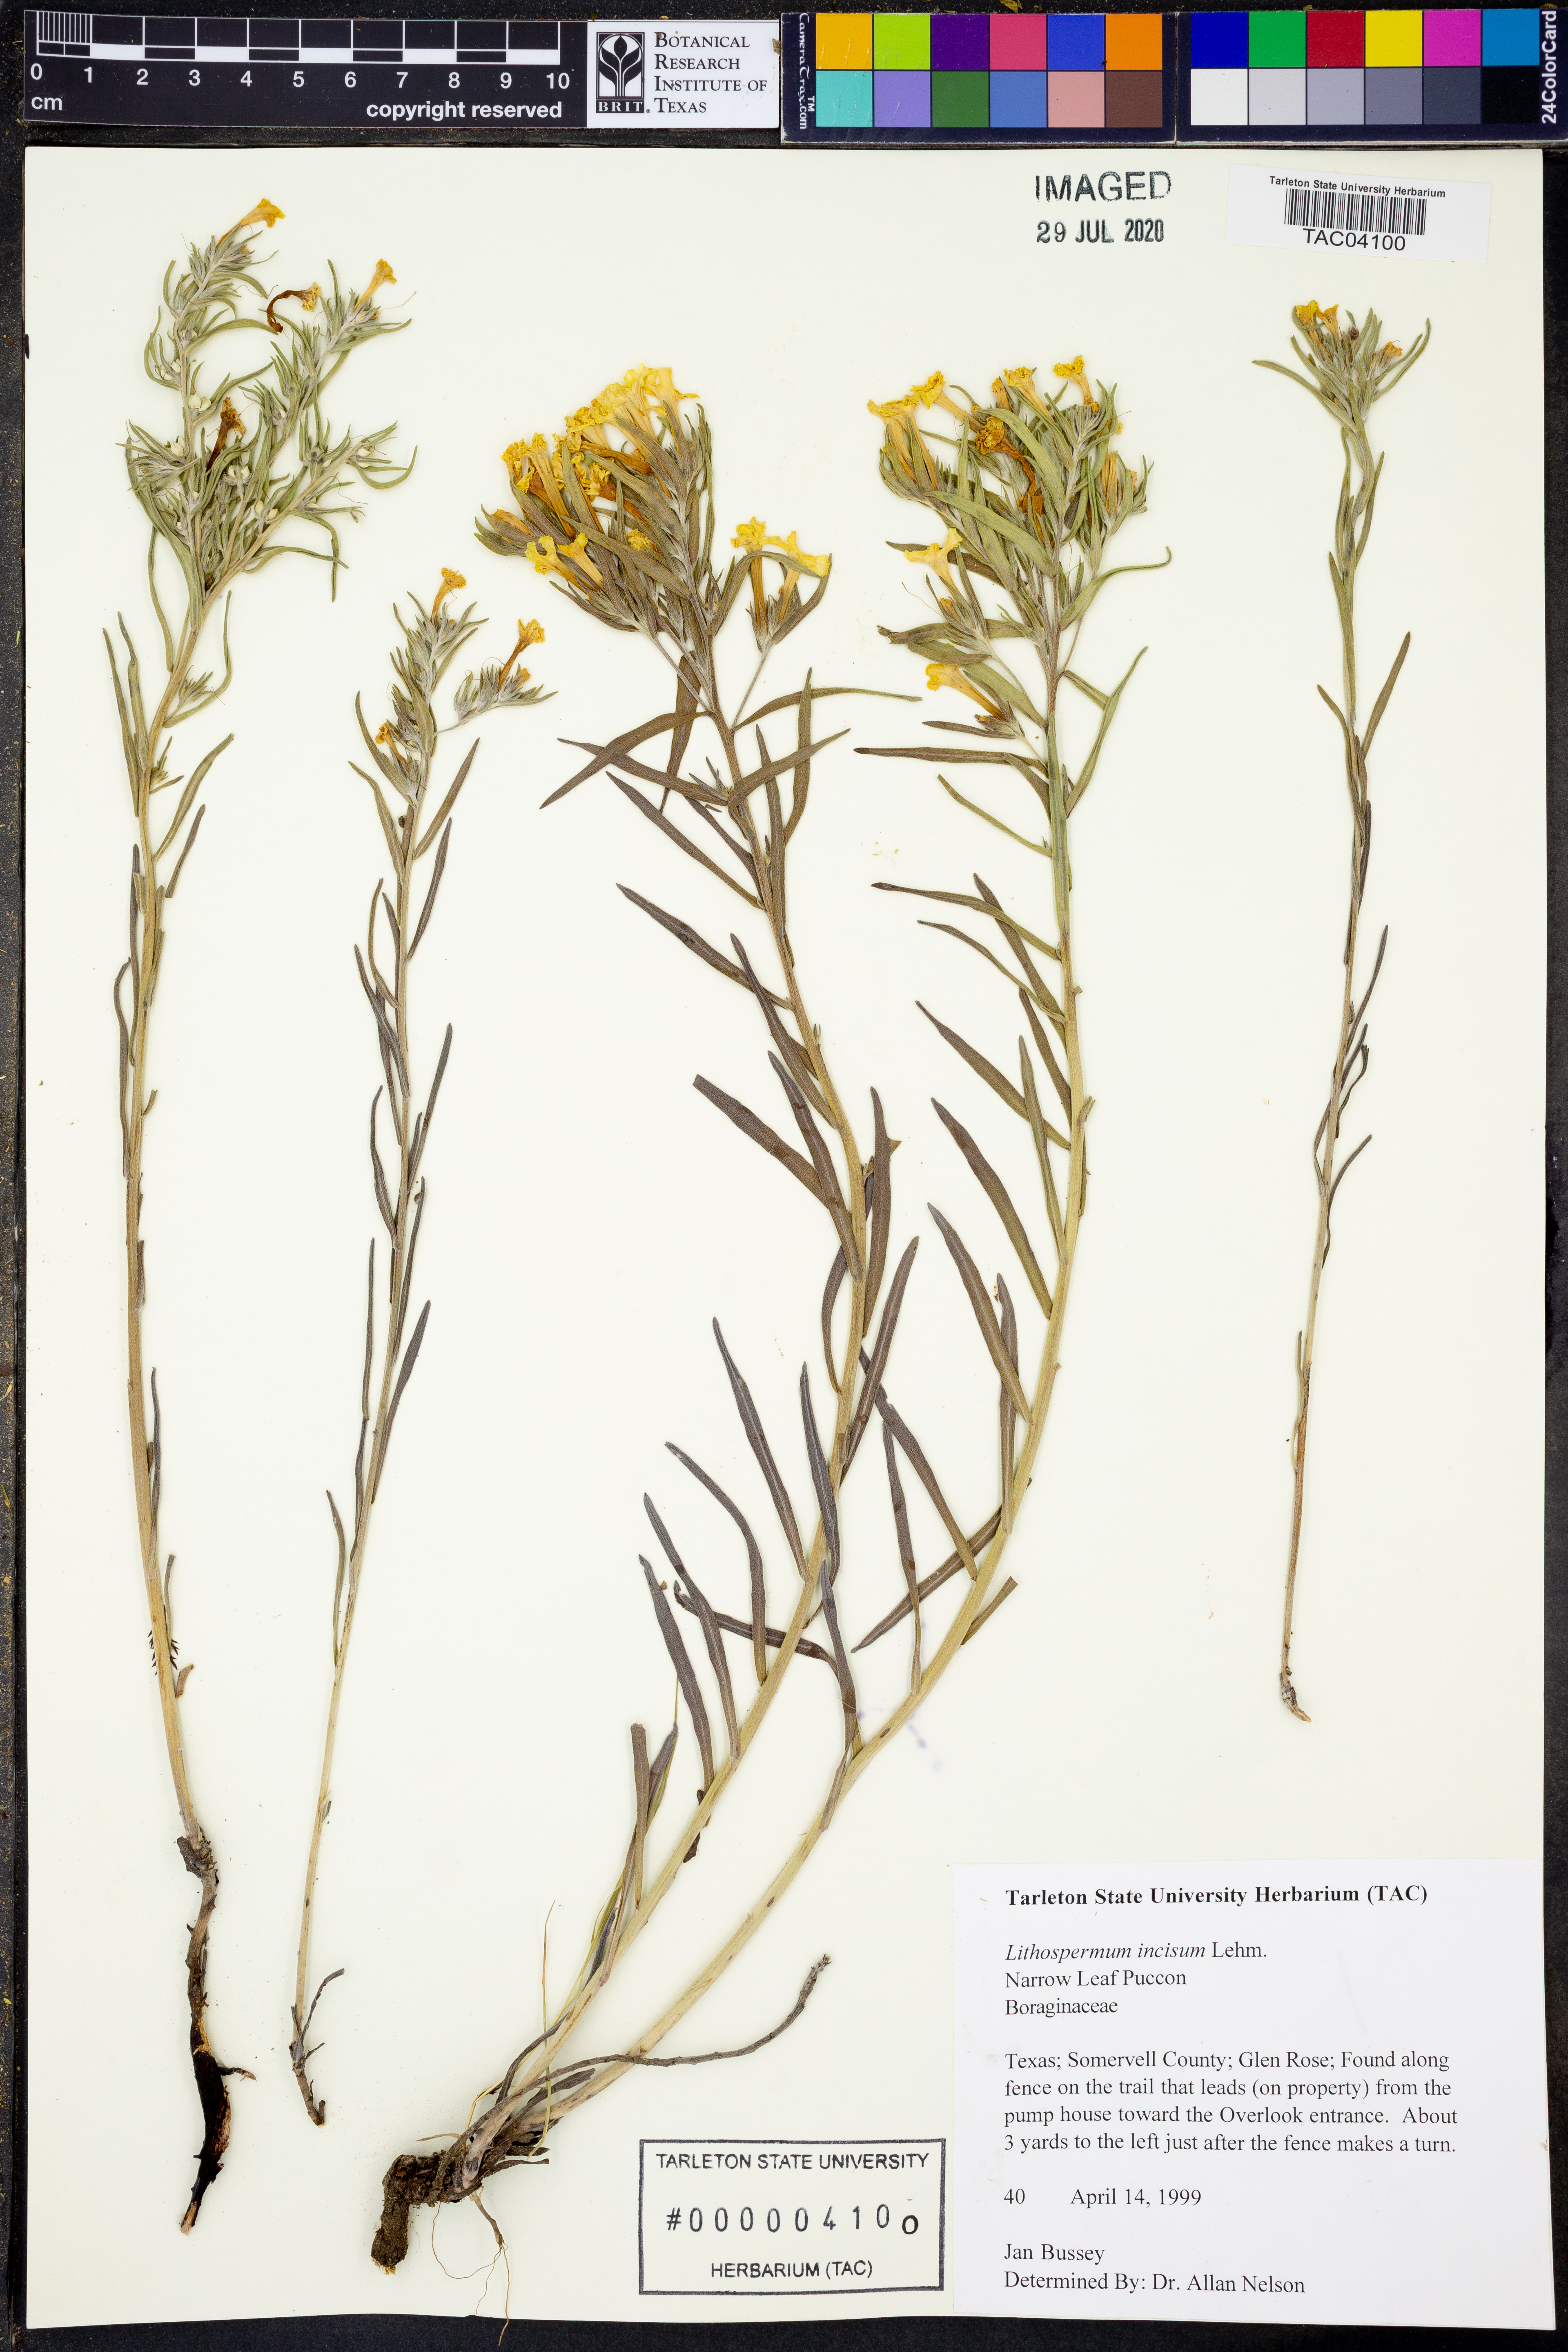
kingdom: Plantae
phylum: Tracheophyta
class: Magnoliopsida
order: Boraginales
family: Boraginaceae
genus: Lithospermum
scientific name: Lithospermum incisum
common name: Fringed gromwell
